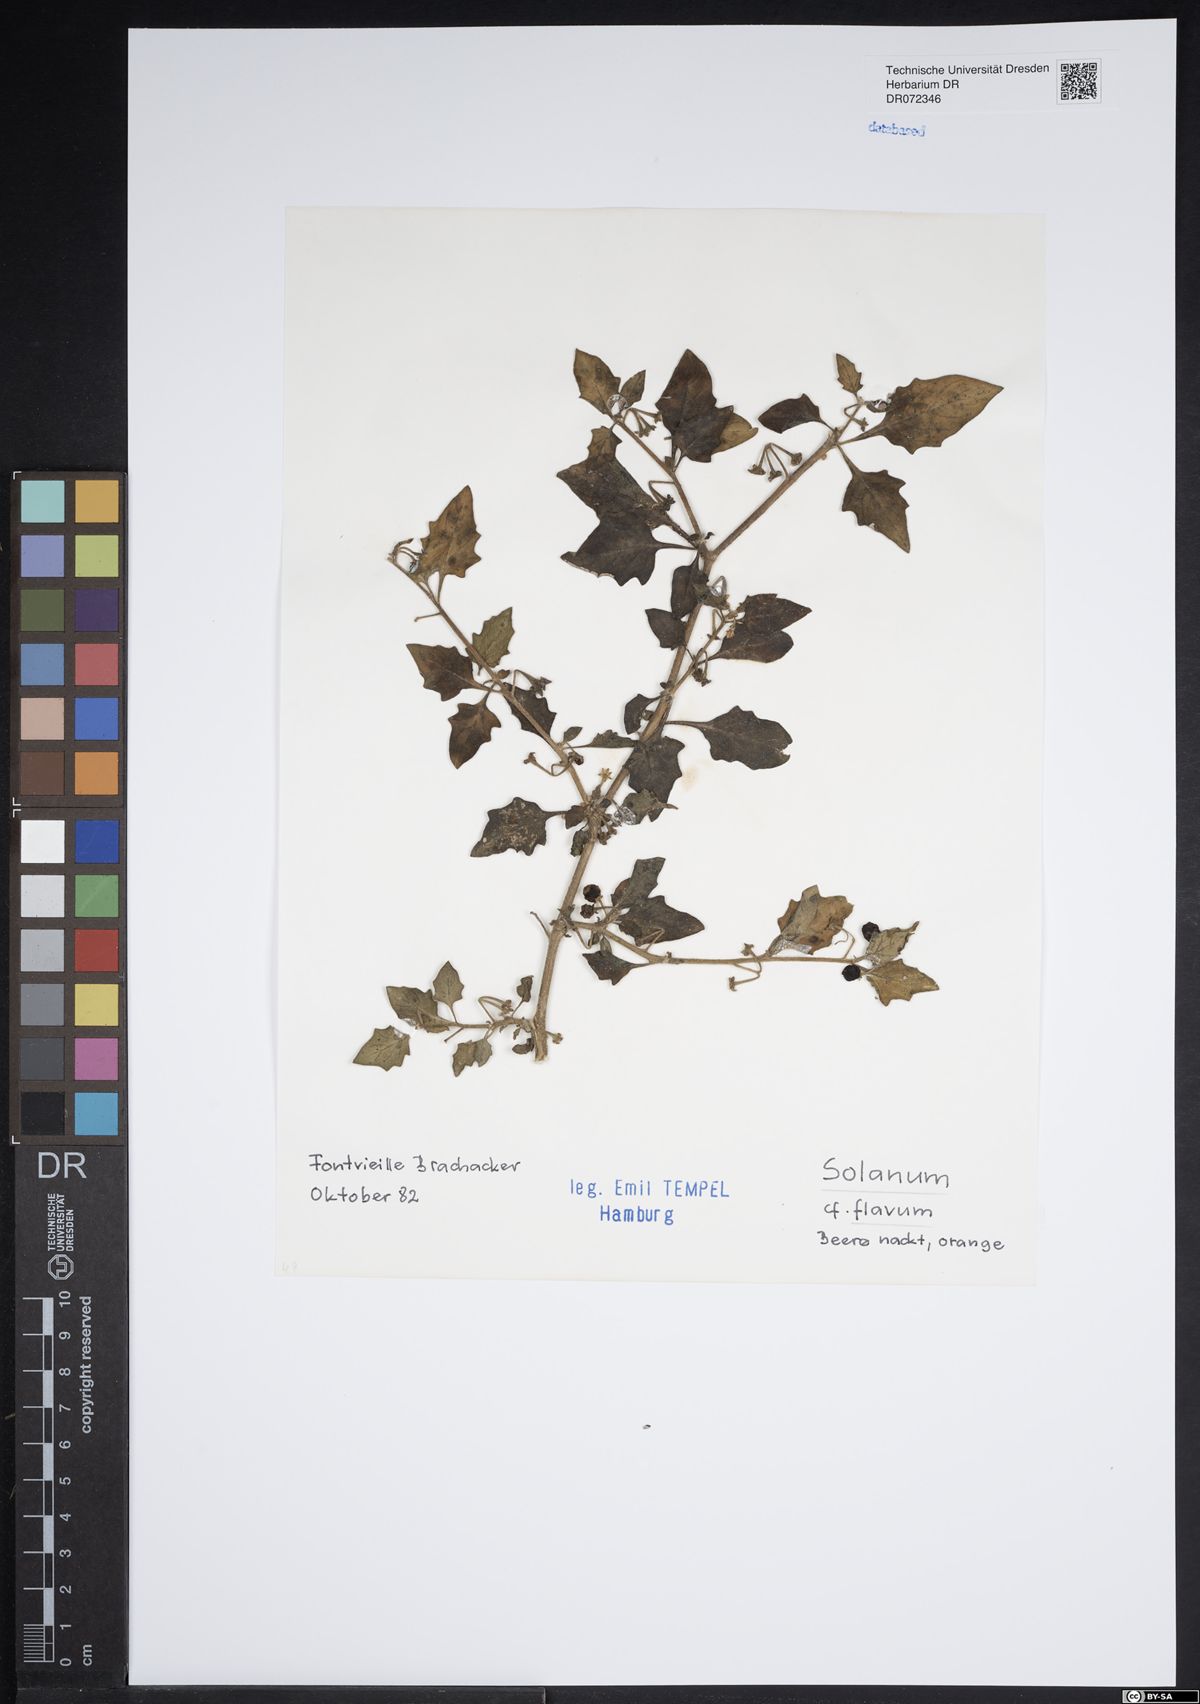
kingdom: Plantae
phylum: Tracheophyta
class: Magnoliopsida
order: Solanales
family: Solanaceae
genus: Solanum
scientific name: Solanum flavum
